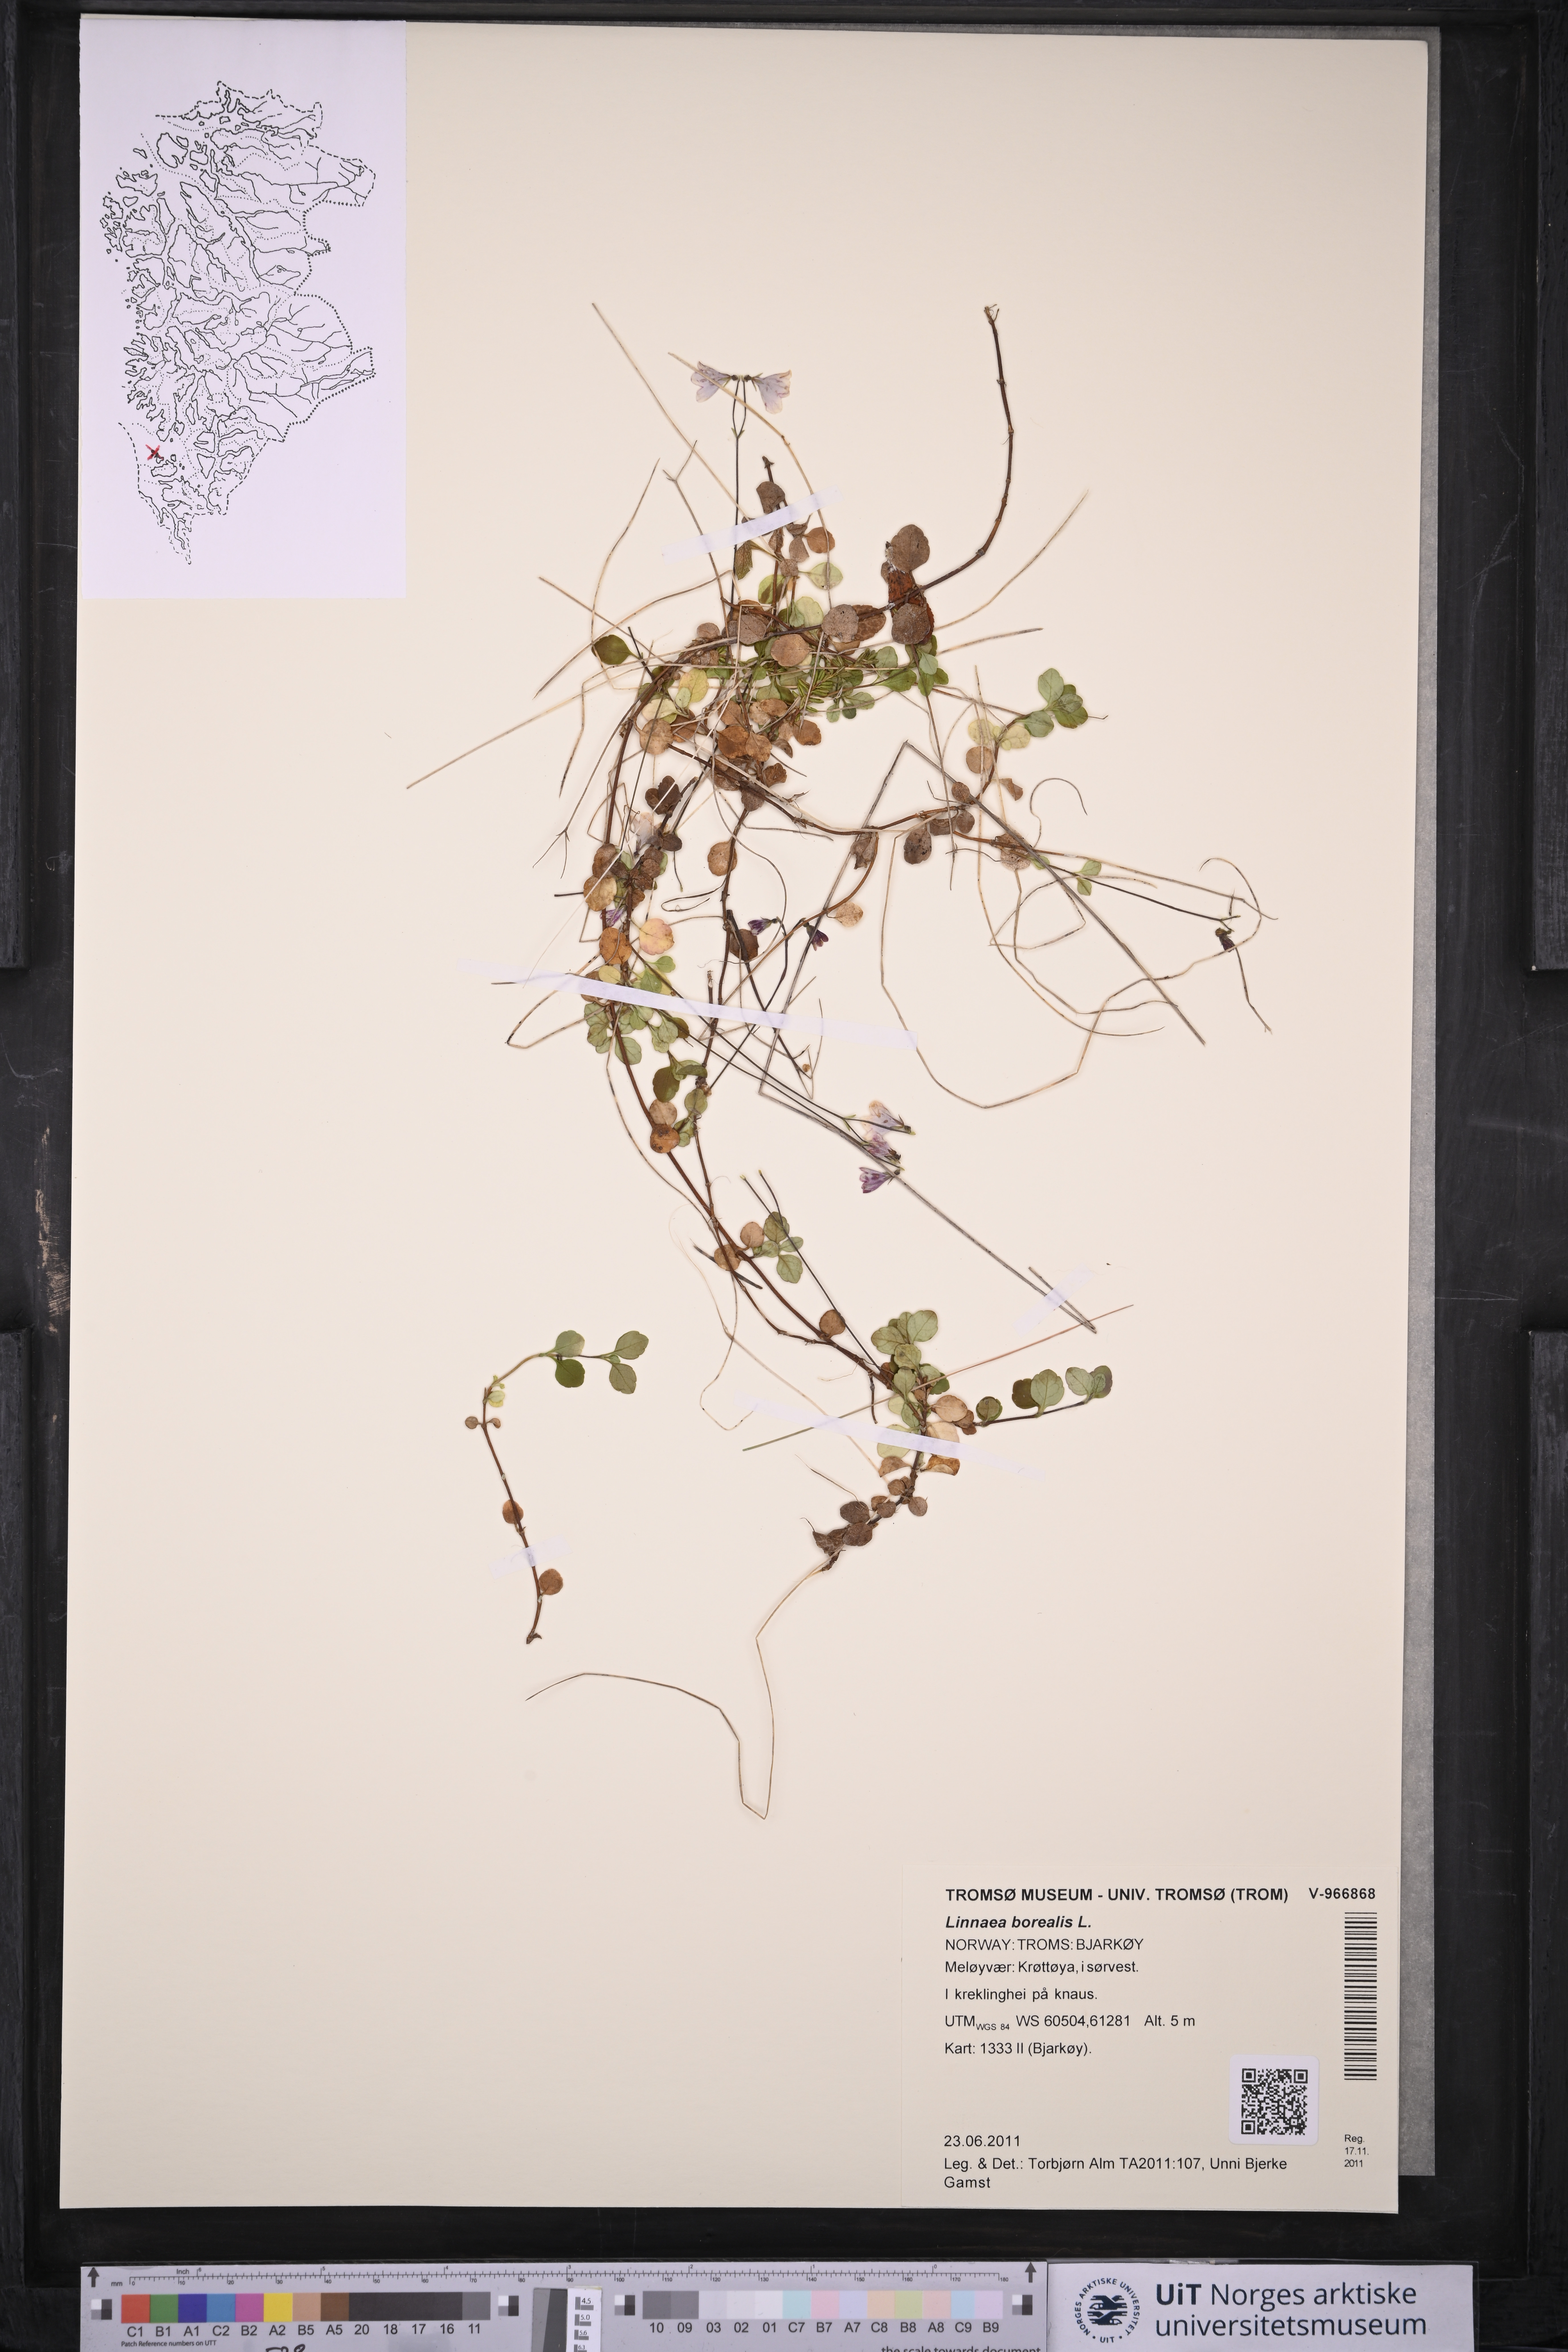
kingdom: Plantae
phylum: Tracheophyta
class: Magnoliopsida
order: Dipsacales
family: Caprifoliaceae
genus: Linnaea
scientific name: Linnaea borealis
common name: Twinflower
